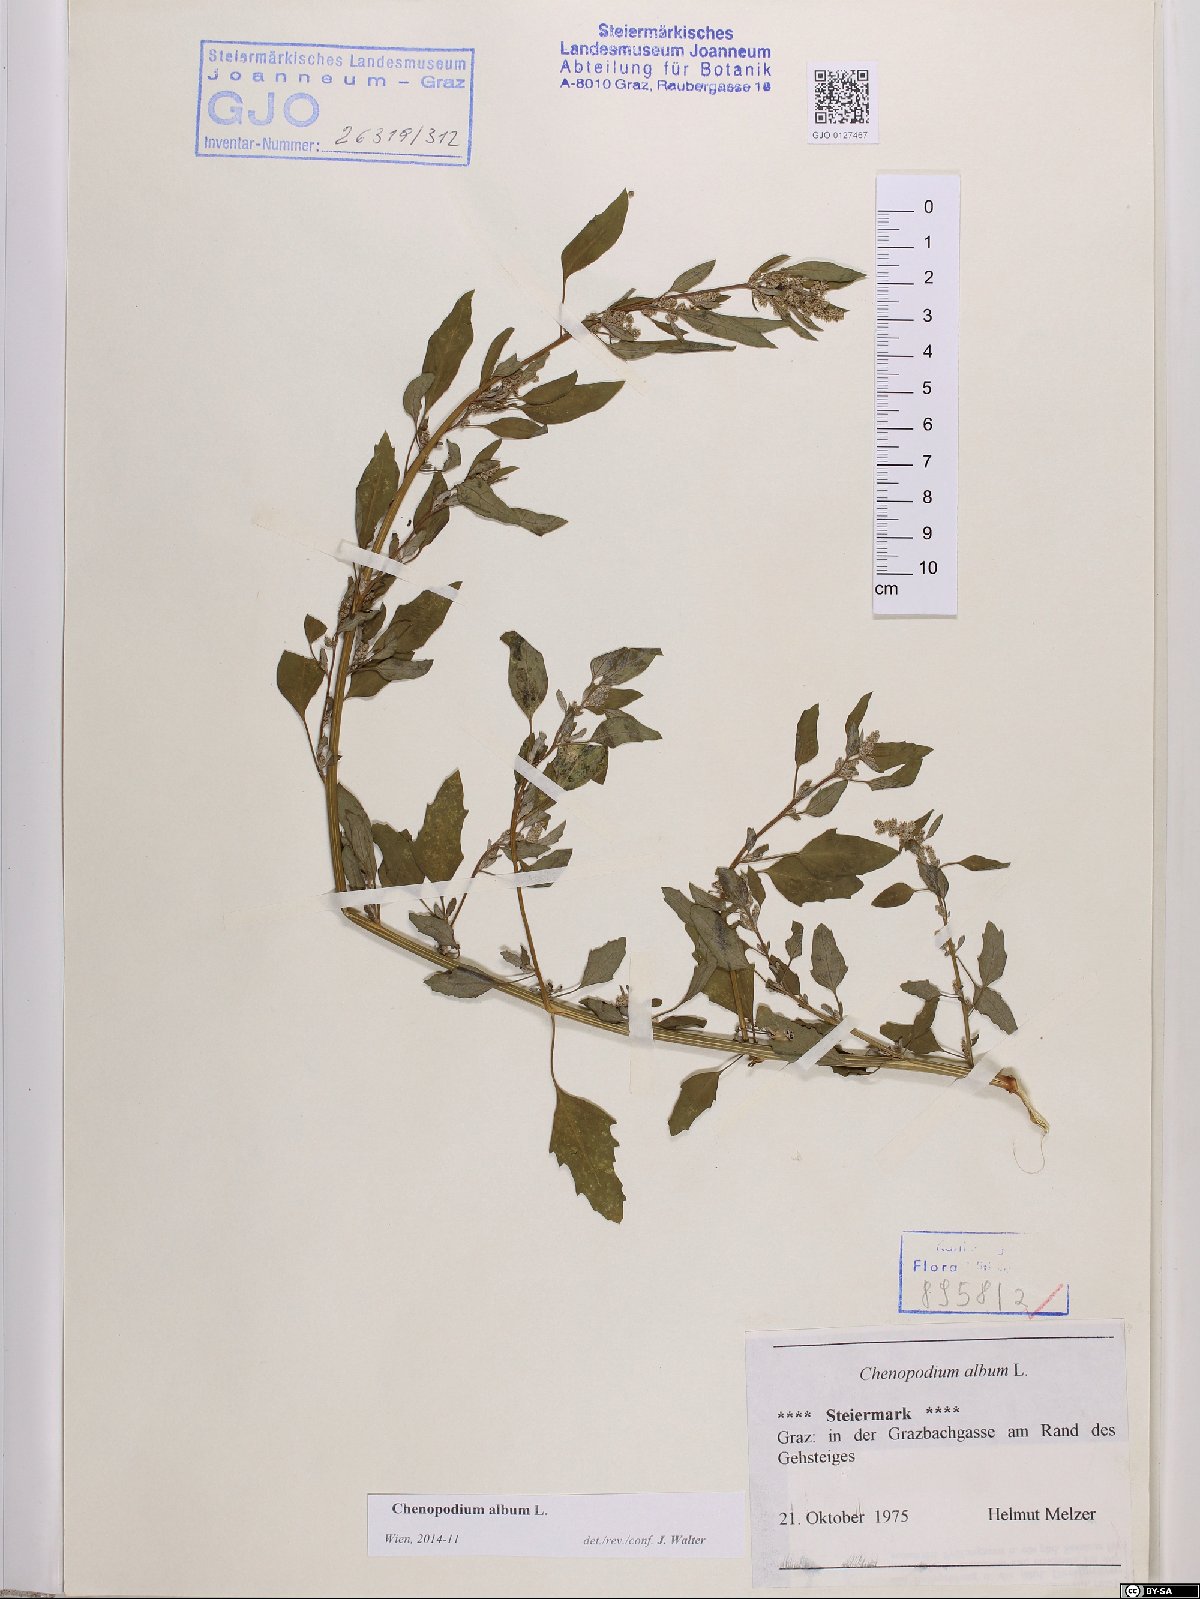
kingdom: Plantae
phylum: Tracheophyta
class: Magnoliopsida
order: Caryophyllales
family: Amaranthaceae
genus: Chenopodium
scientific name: Chenopodium album
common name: Fat-hen
